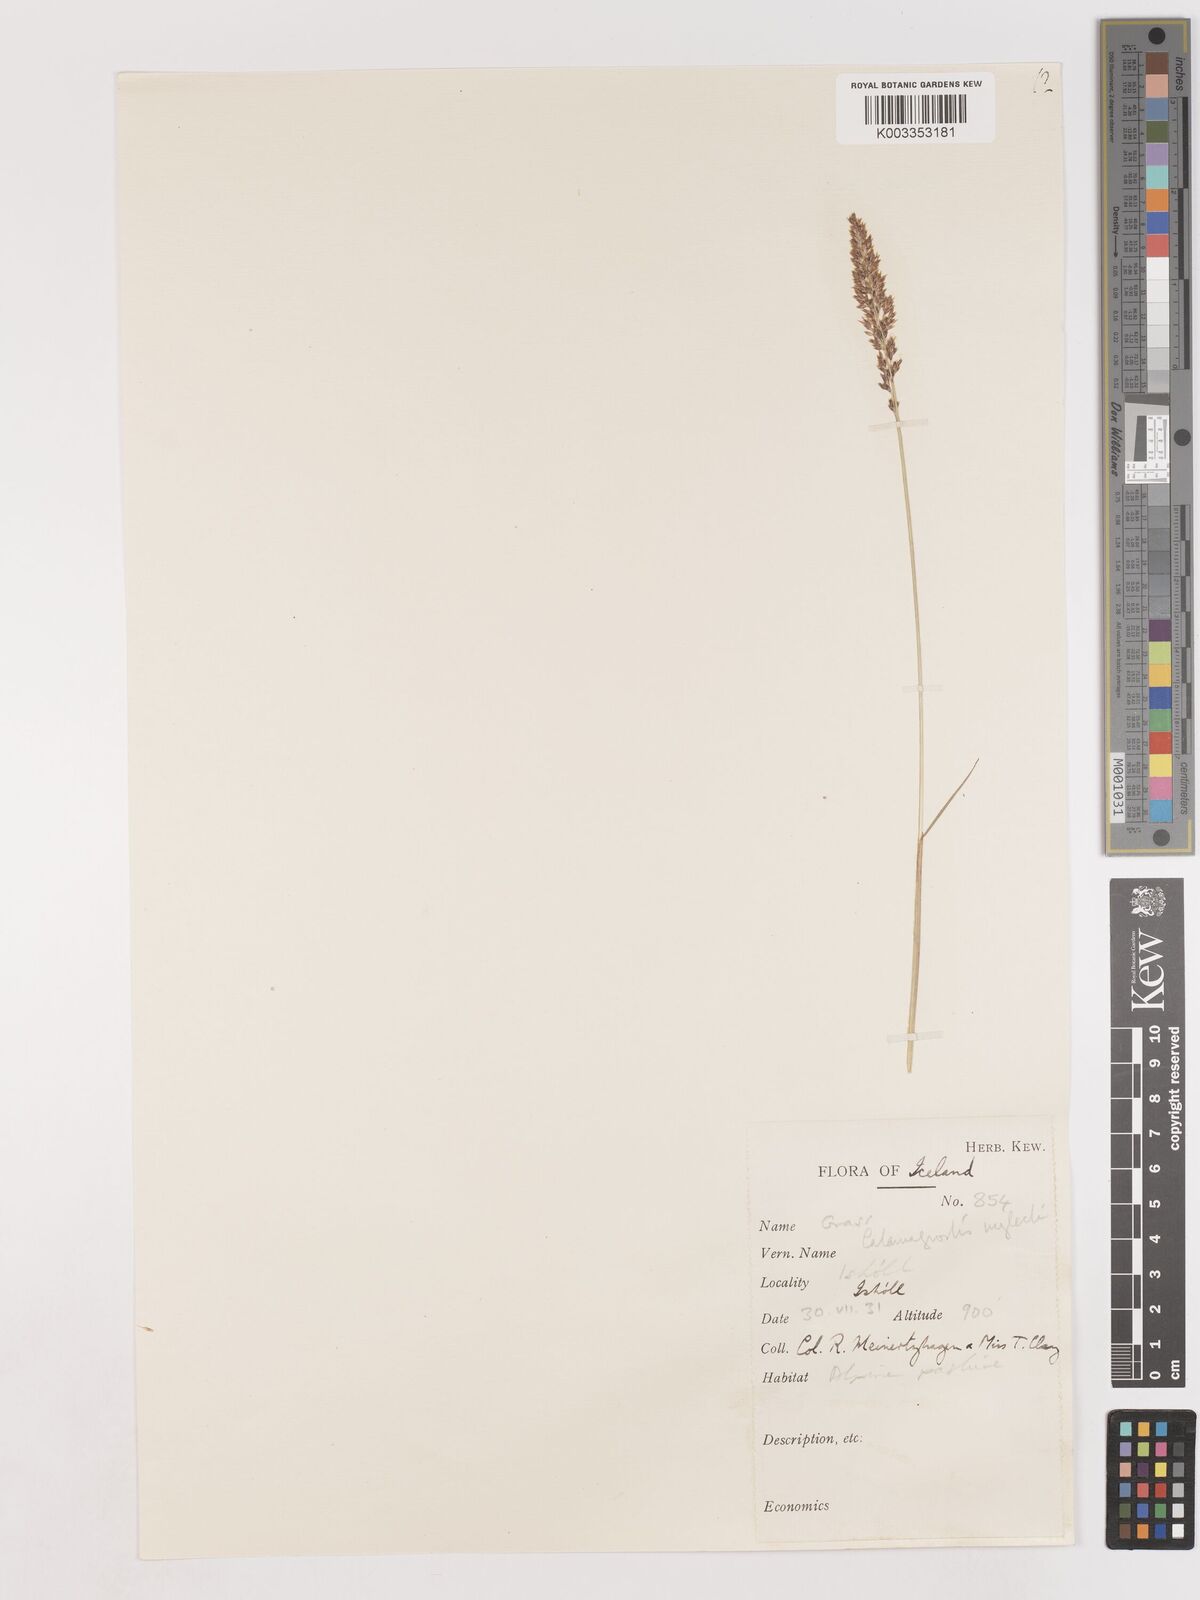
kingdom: Plantae
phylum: Tracheophyta
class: Liliopsida
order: Poales
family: Poaceae
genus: Cinnagrostis
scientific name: Cinnagrostis recta
